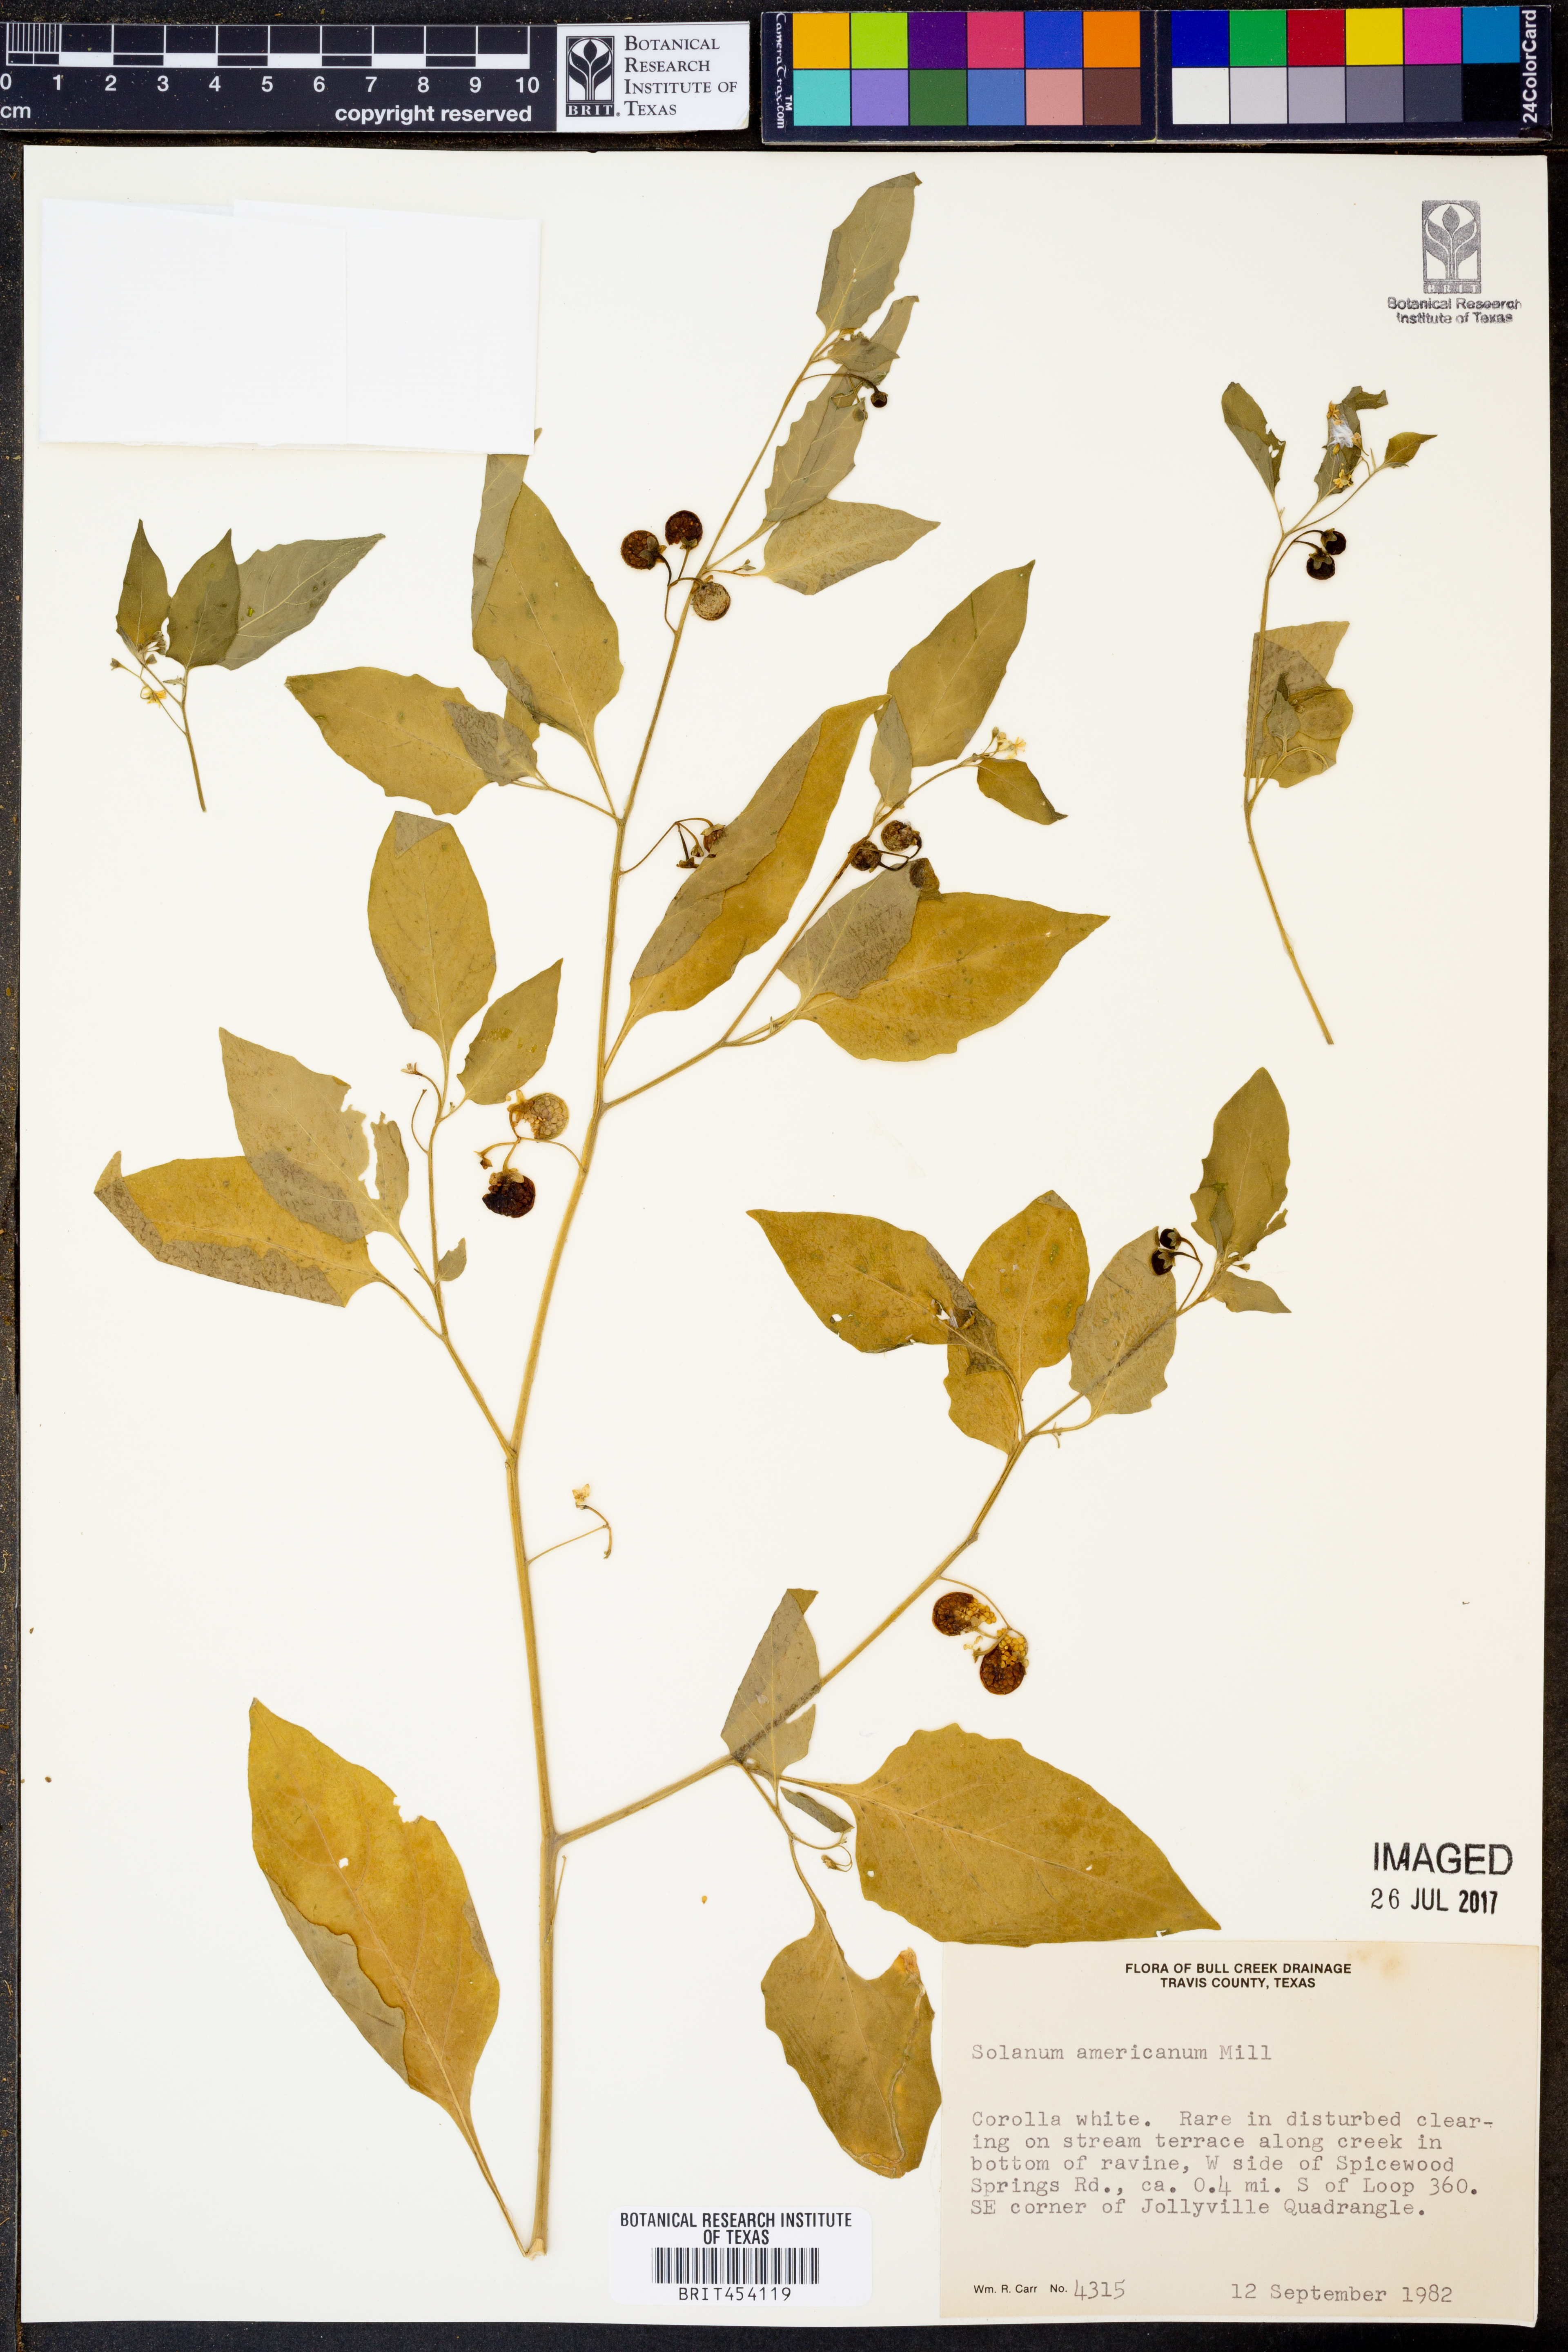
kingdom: Plantae
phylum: Tracheophyta
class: Magnoliopsida
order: Solanales
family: Solanaceae
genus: Solanum
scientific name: Solanum americanum
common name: American black nightshade
